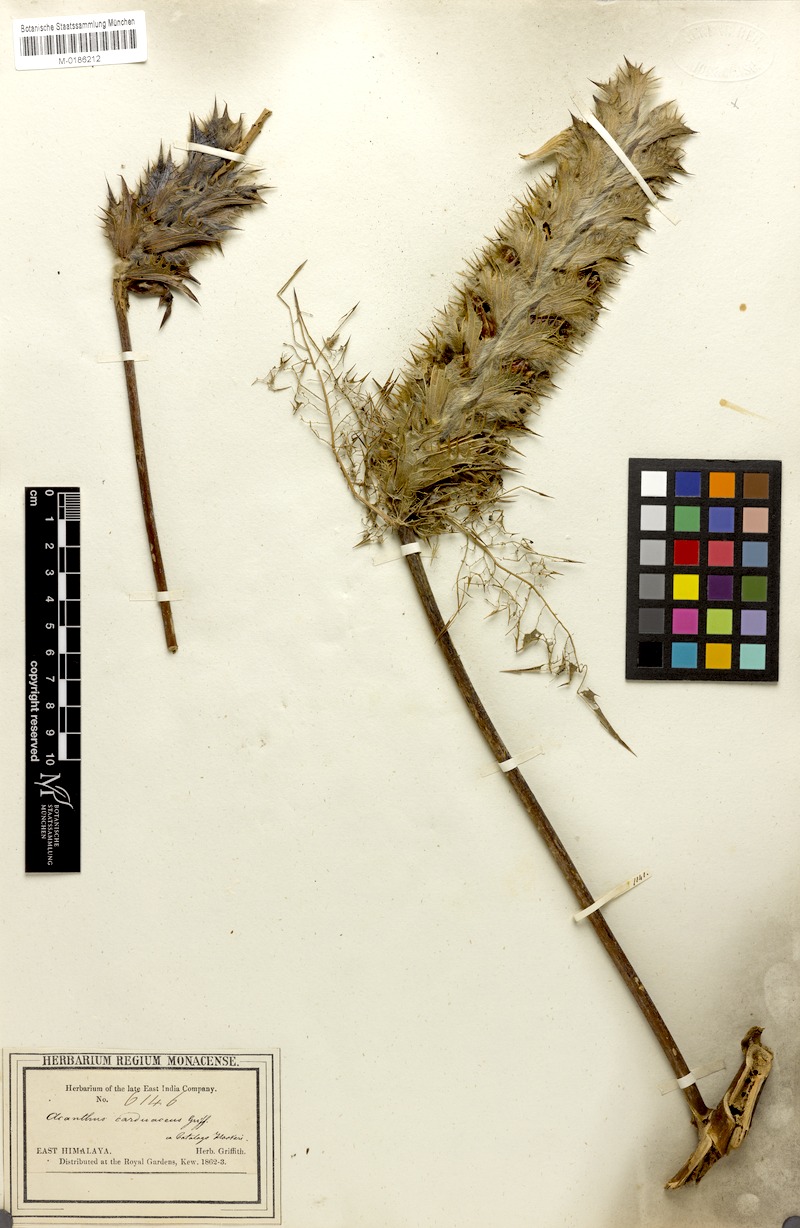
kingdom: Plantae
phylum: Tracheophyta
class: Magnoliopsida
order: Lamiales
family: Acanthaceae
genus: Acanthus
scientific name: Acanthus carduaceus
